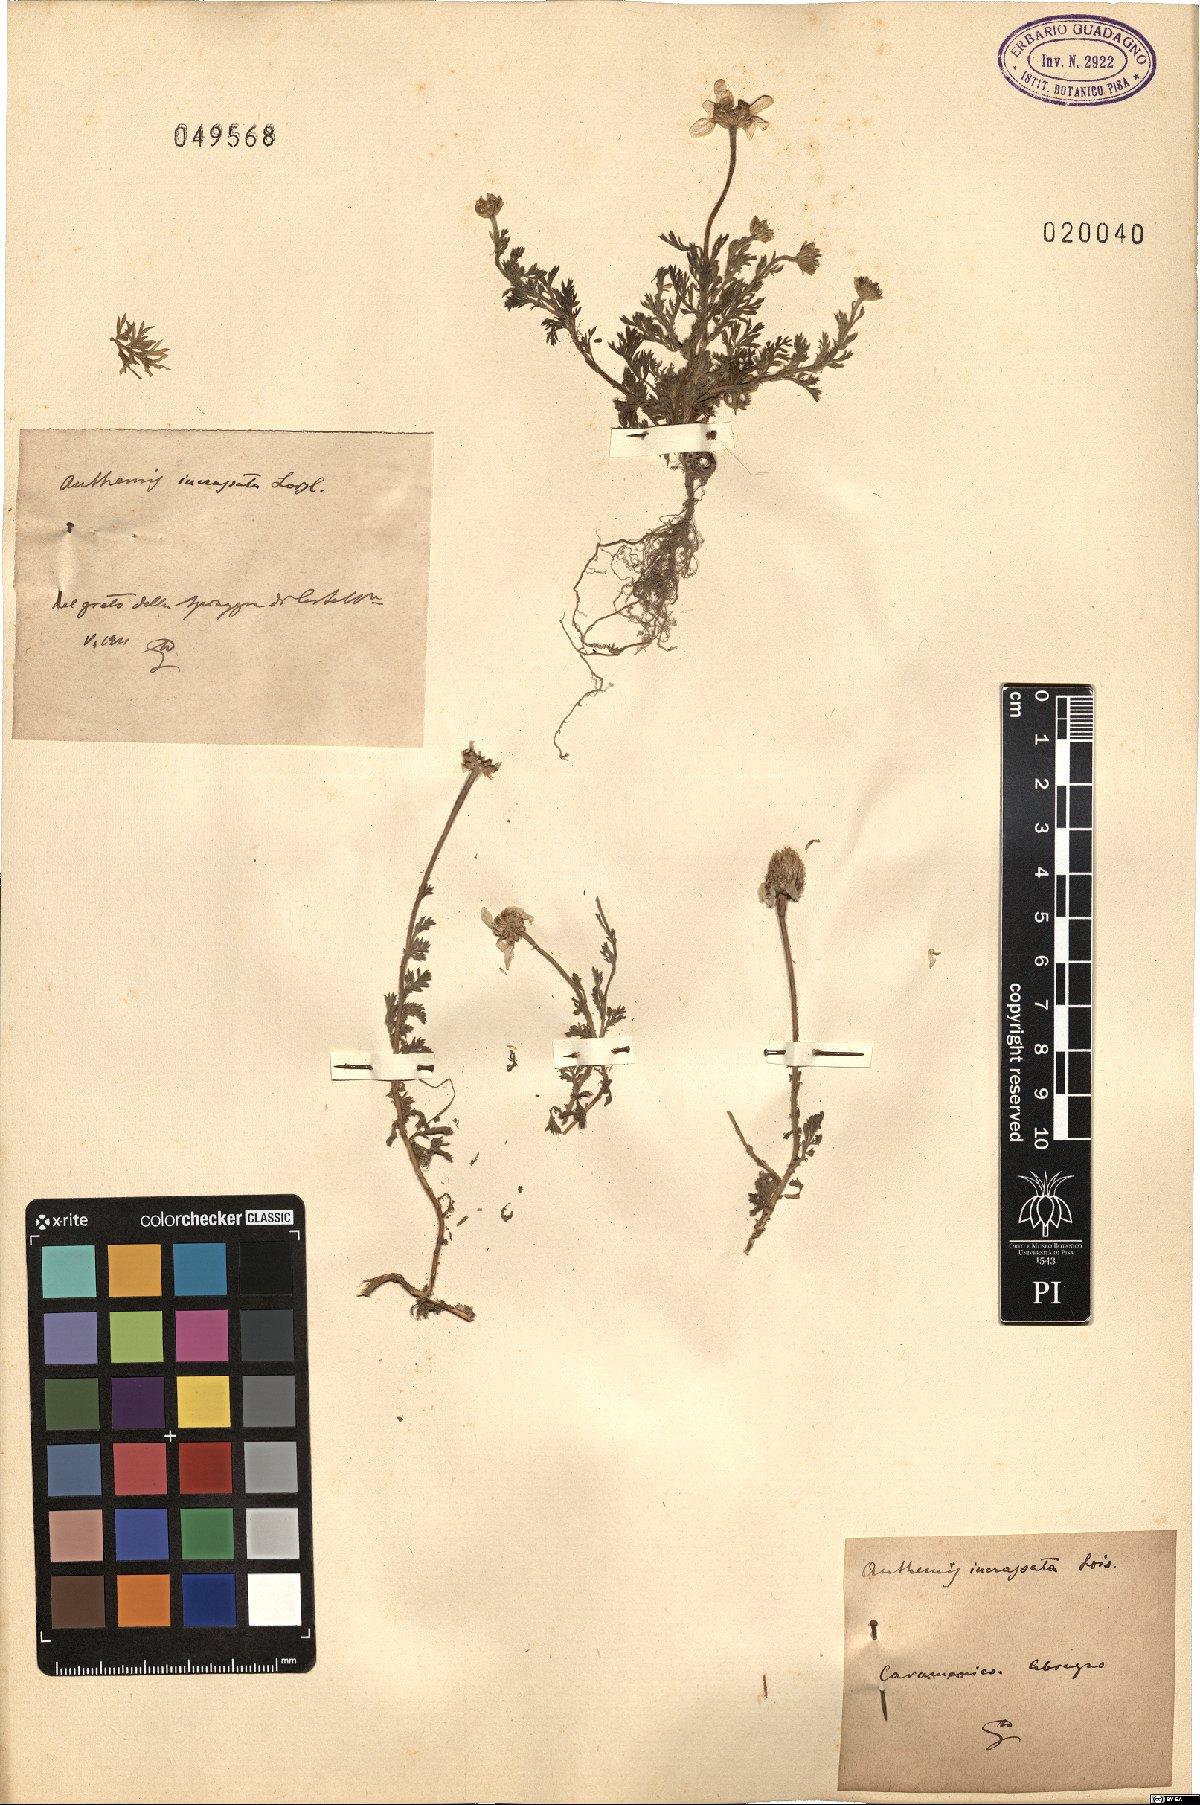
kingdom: Plantae
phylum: Tracheophyta
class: Magnoliopsida
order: Asterales
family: Asteraceae
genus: Anthemis
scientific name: Anthemis arvensis
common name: Corn chamomile
